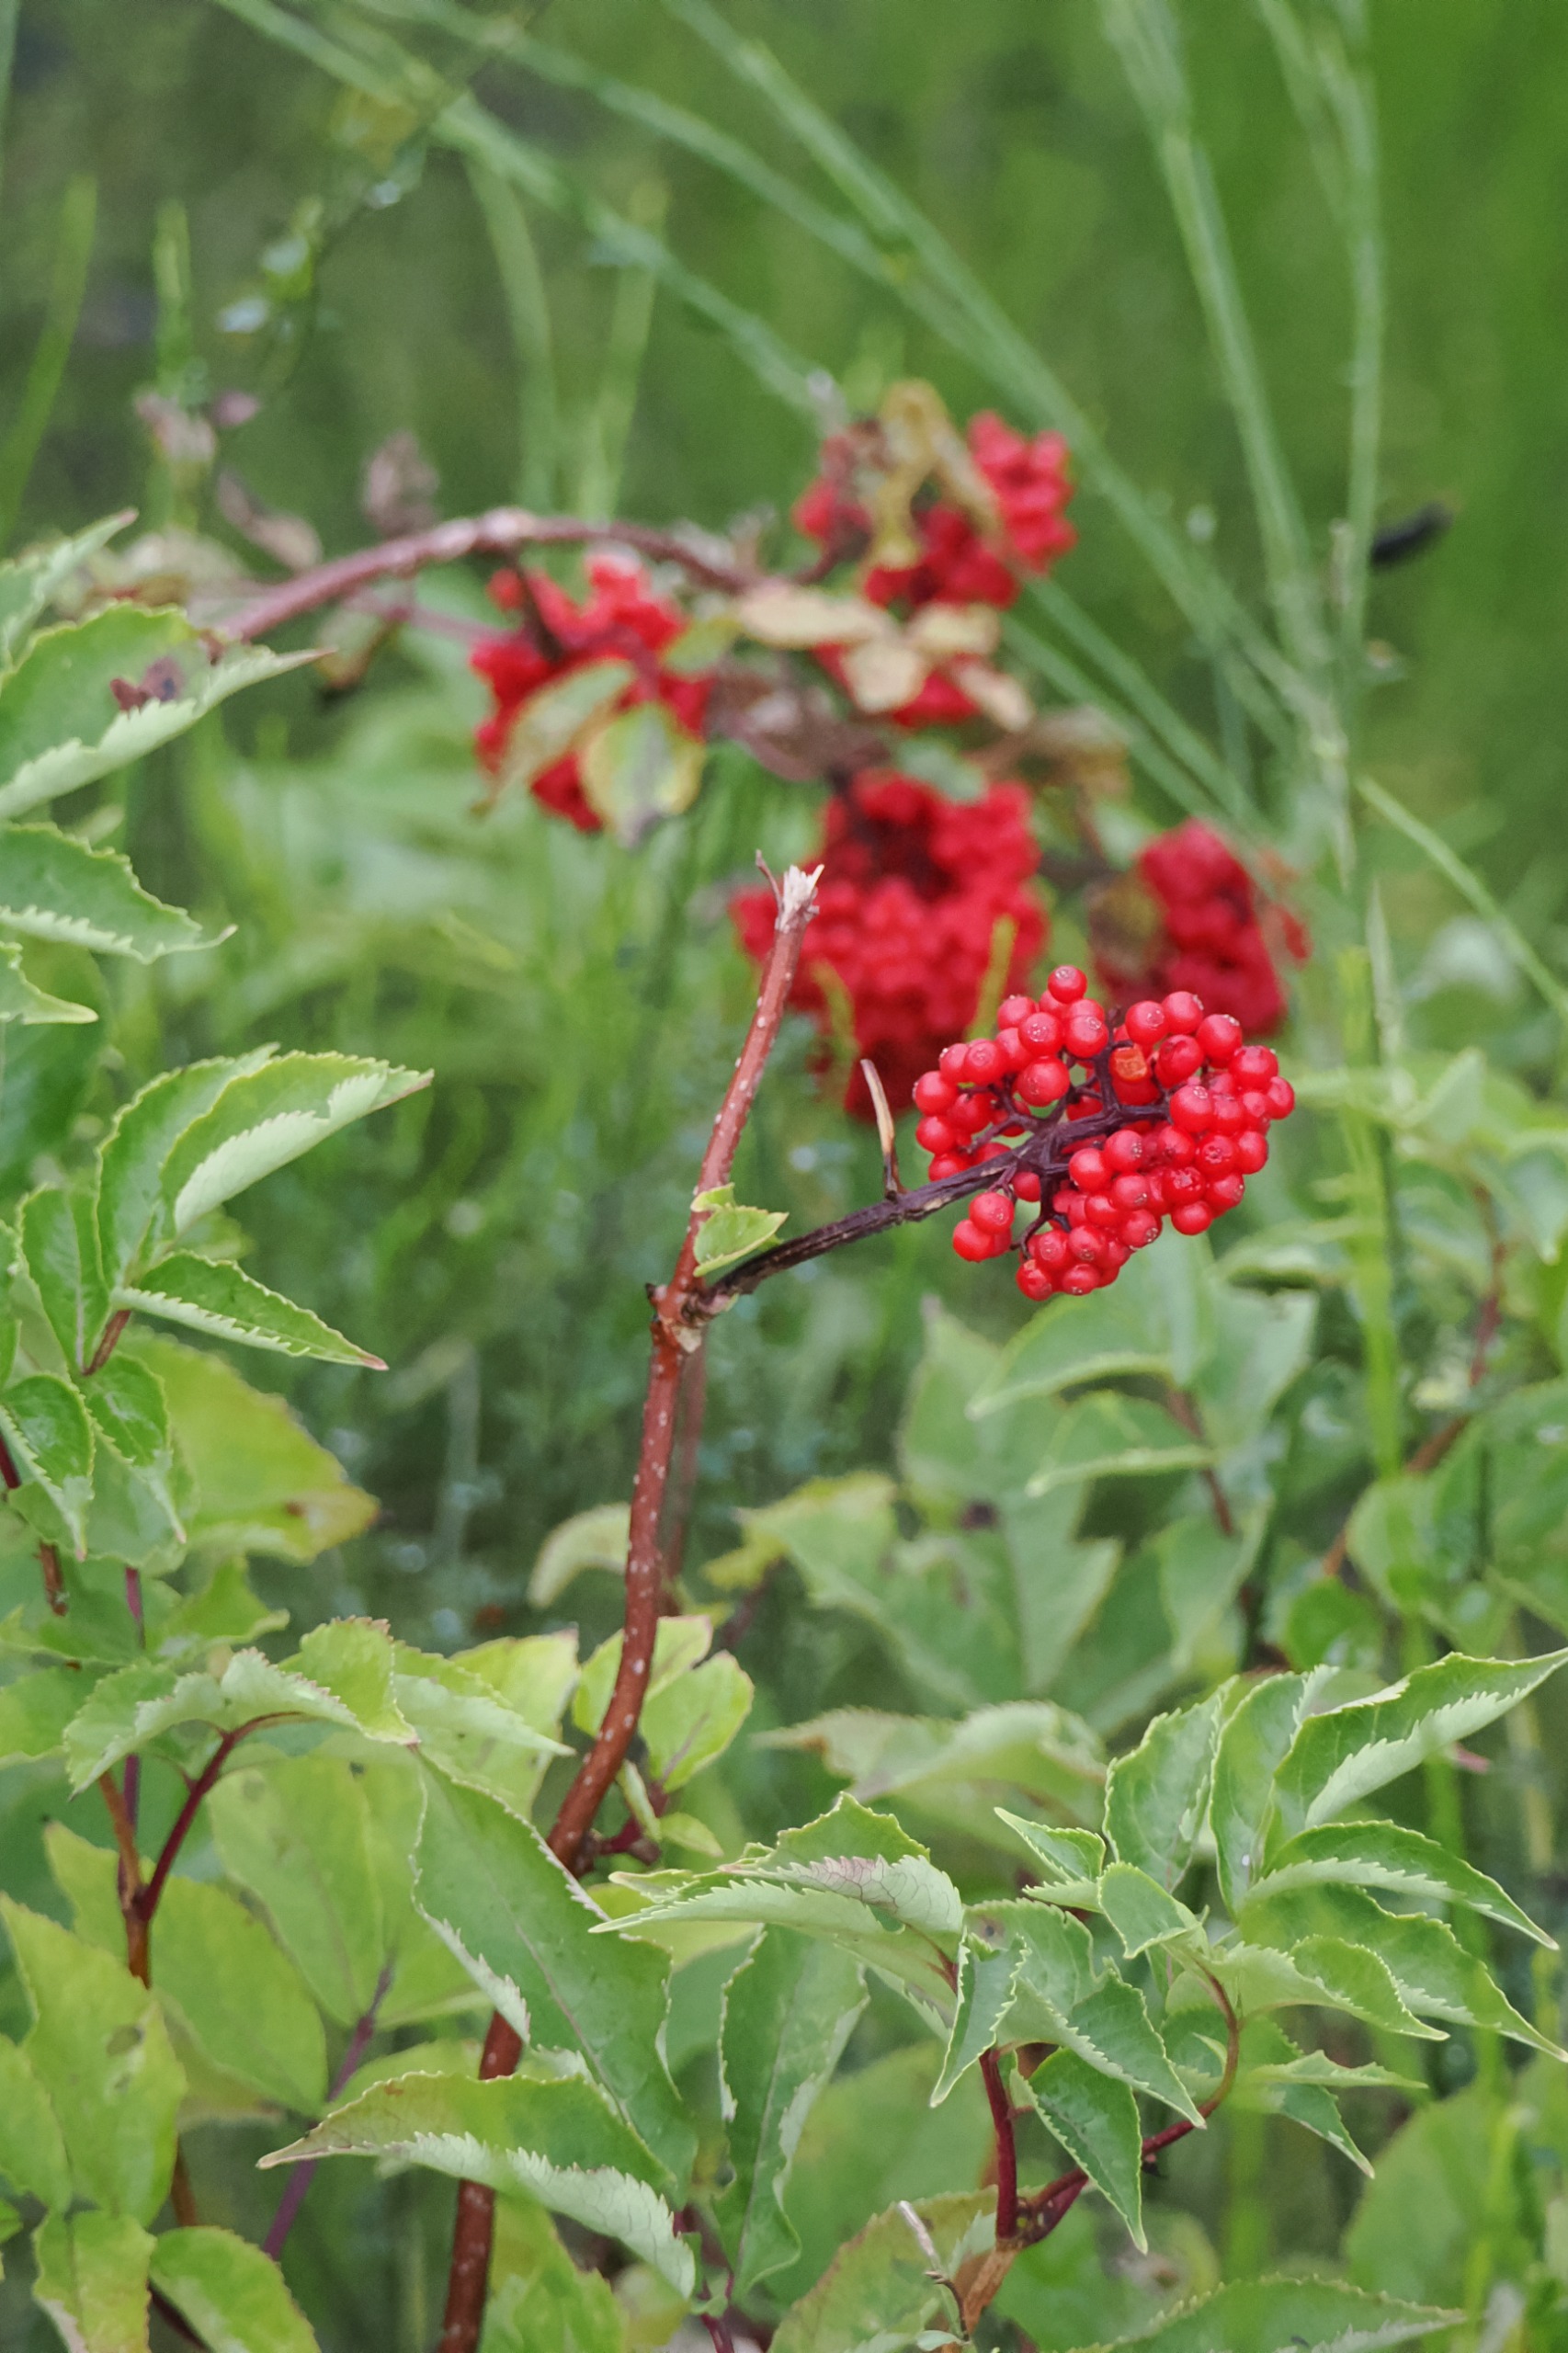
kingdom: Plantae
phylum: Tracheophyta
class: Magnoliopsida
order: Dipsacales
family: Viburnaceae
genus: Sambucus
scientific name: Sambucus racemosa
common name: Drue-hyld
